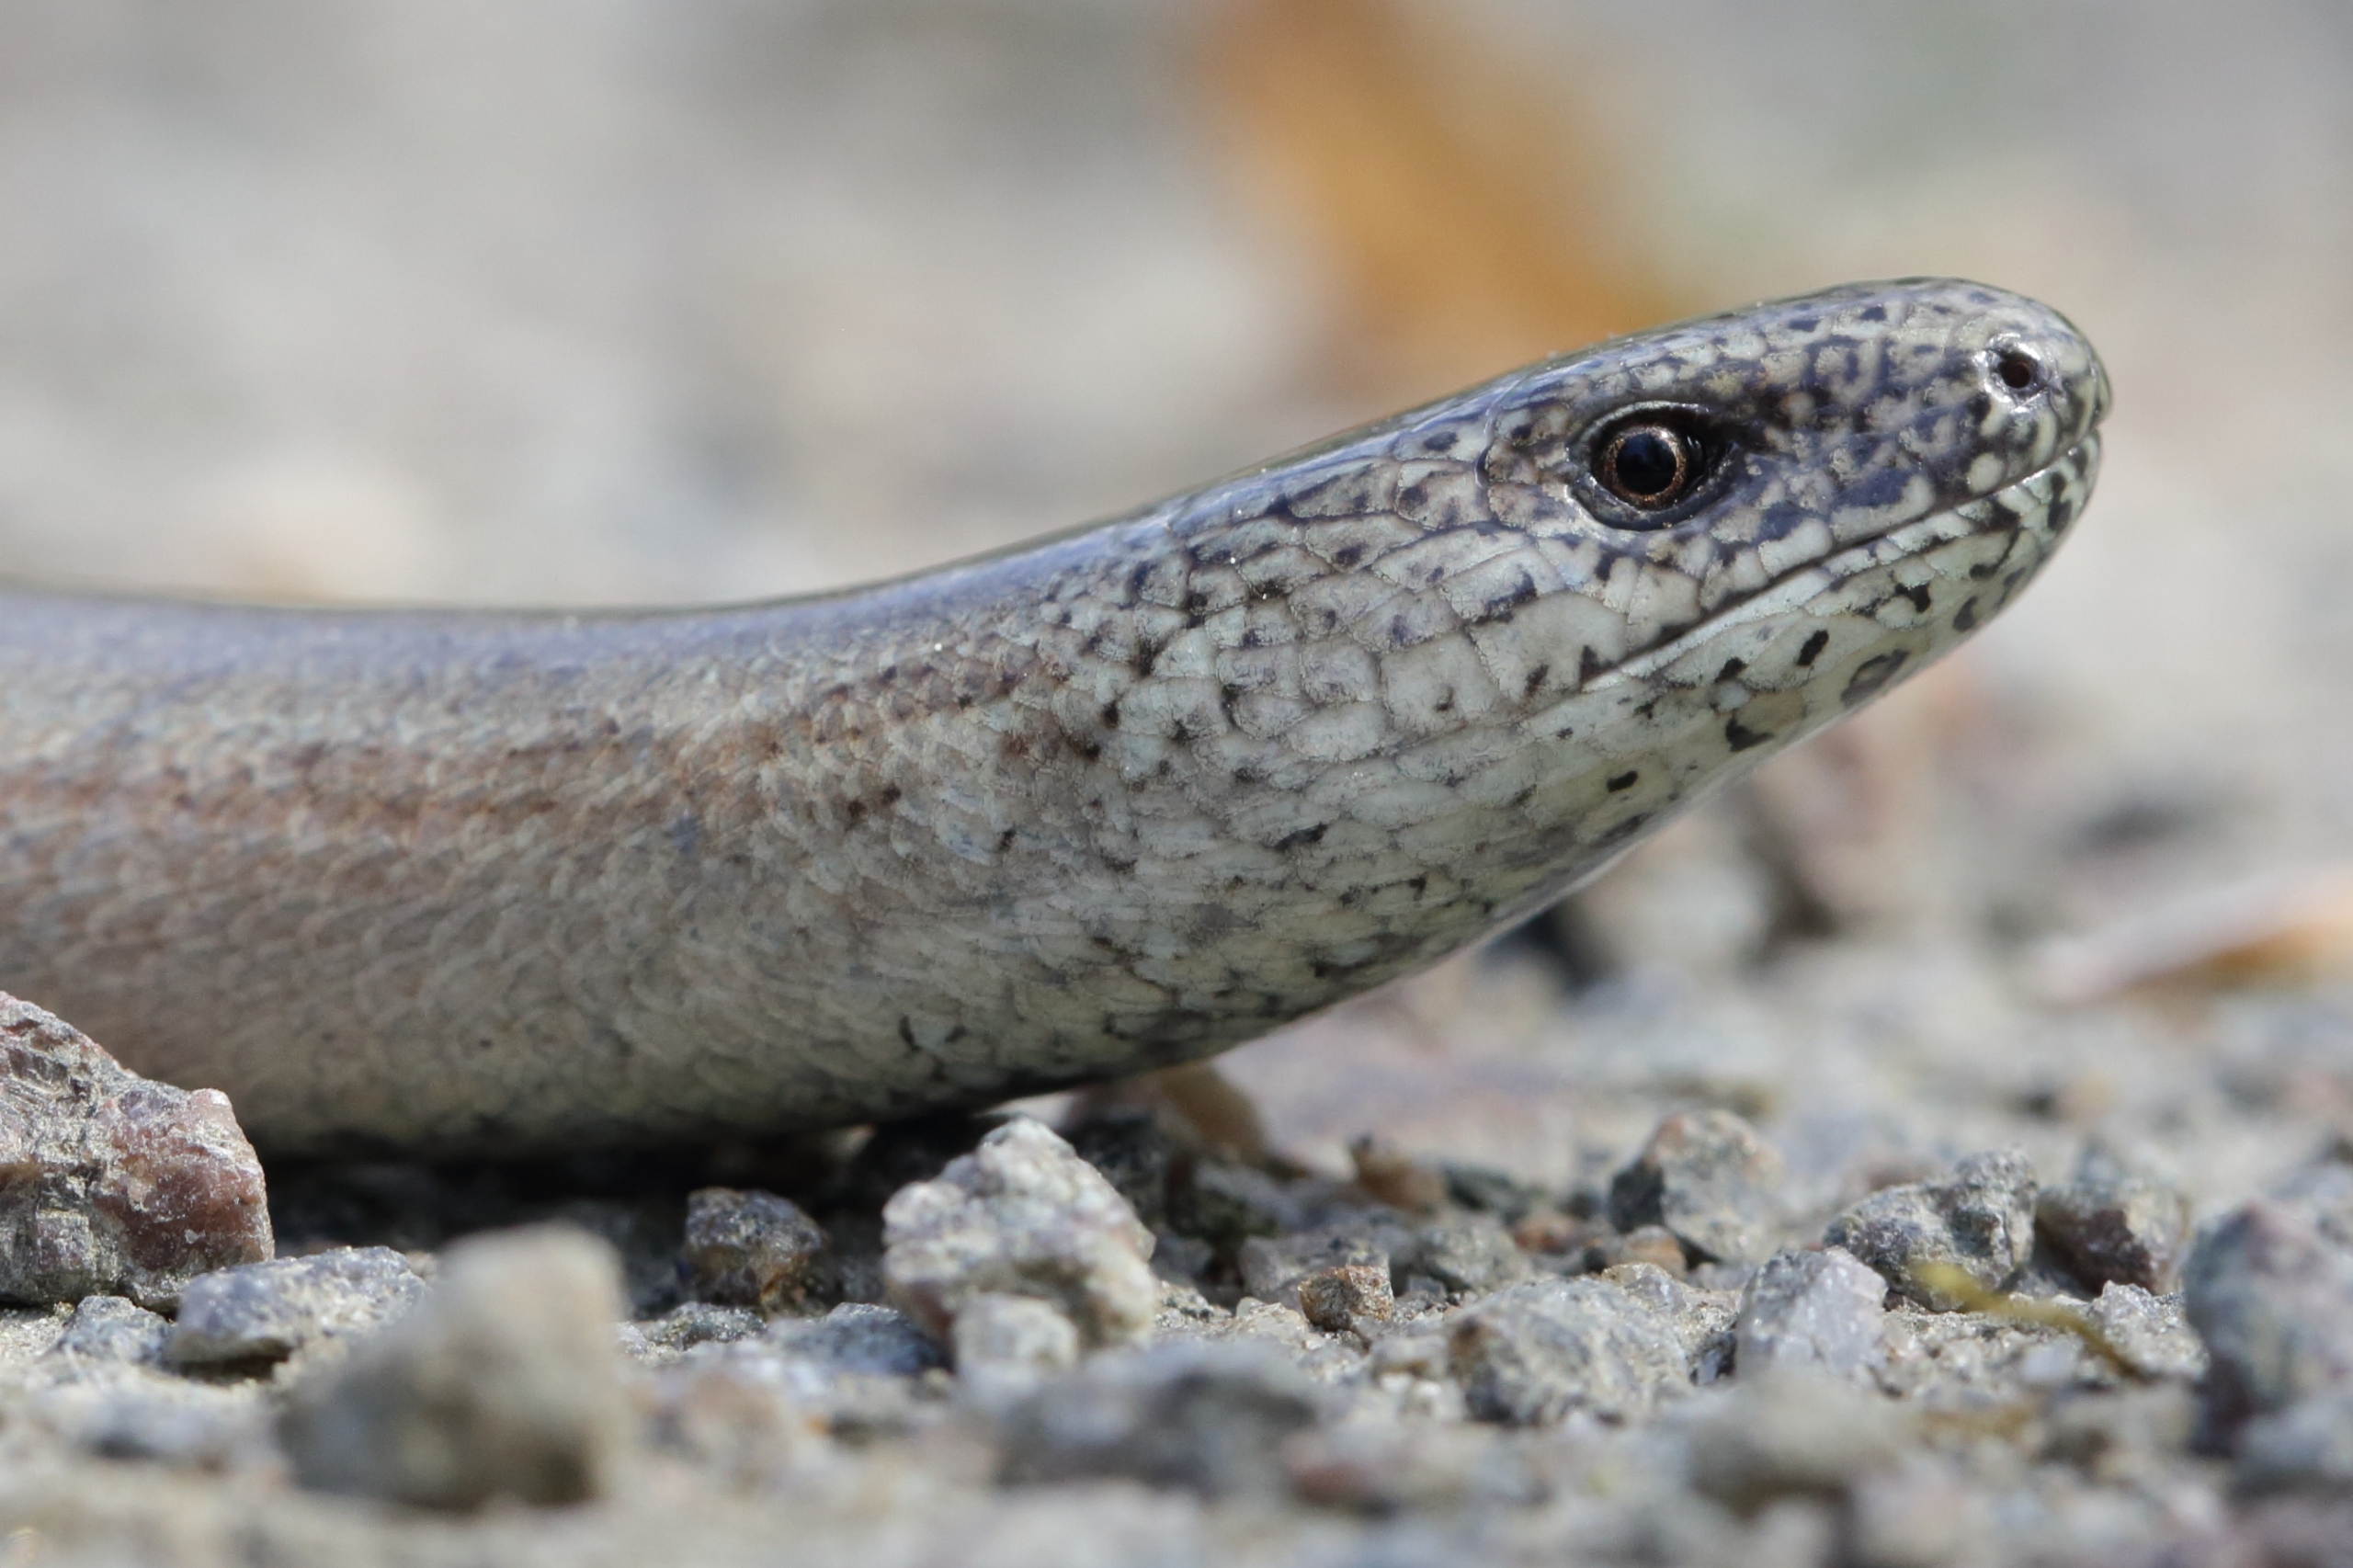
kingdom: Animalia
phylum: Chordata
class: Squamata
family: Anguidae
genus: Anguis
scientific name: Anguis fragilis
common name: Stålorm
